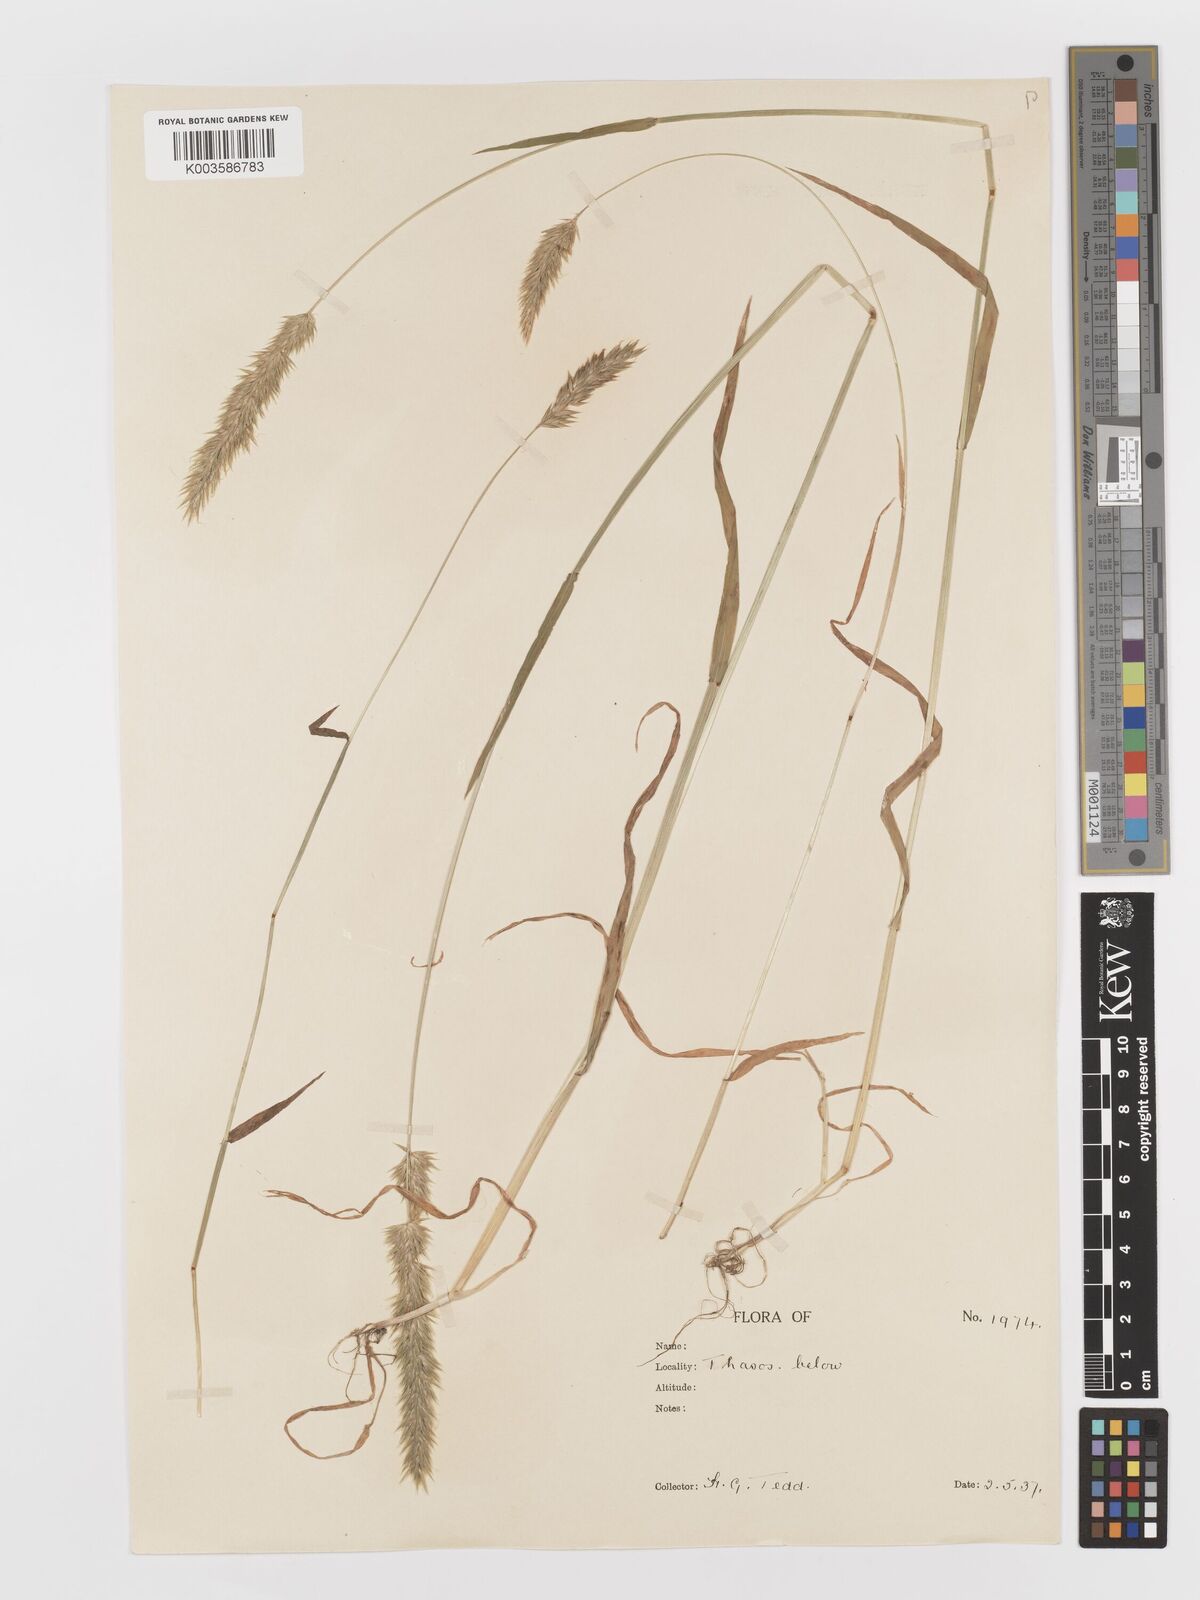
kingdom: Plantae
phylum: Tracheophyta
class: Liliopsida
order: Poales
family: Poaceae
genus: Anthoxanthum
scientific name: Anthoxanthum odoratum
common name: Sweet vernalgrass
